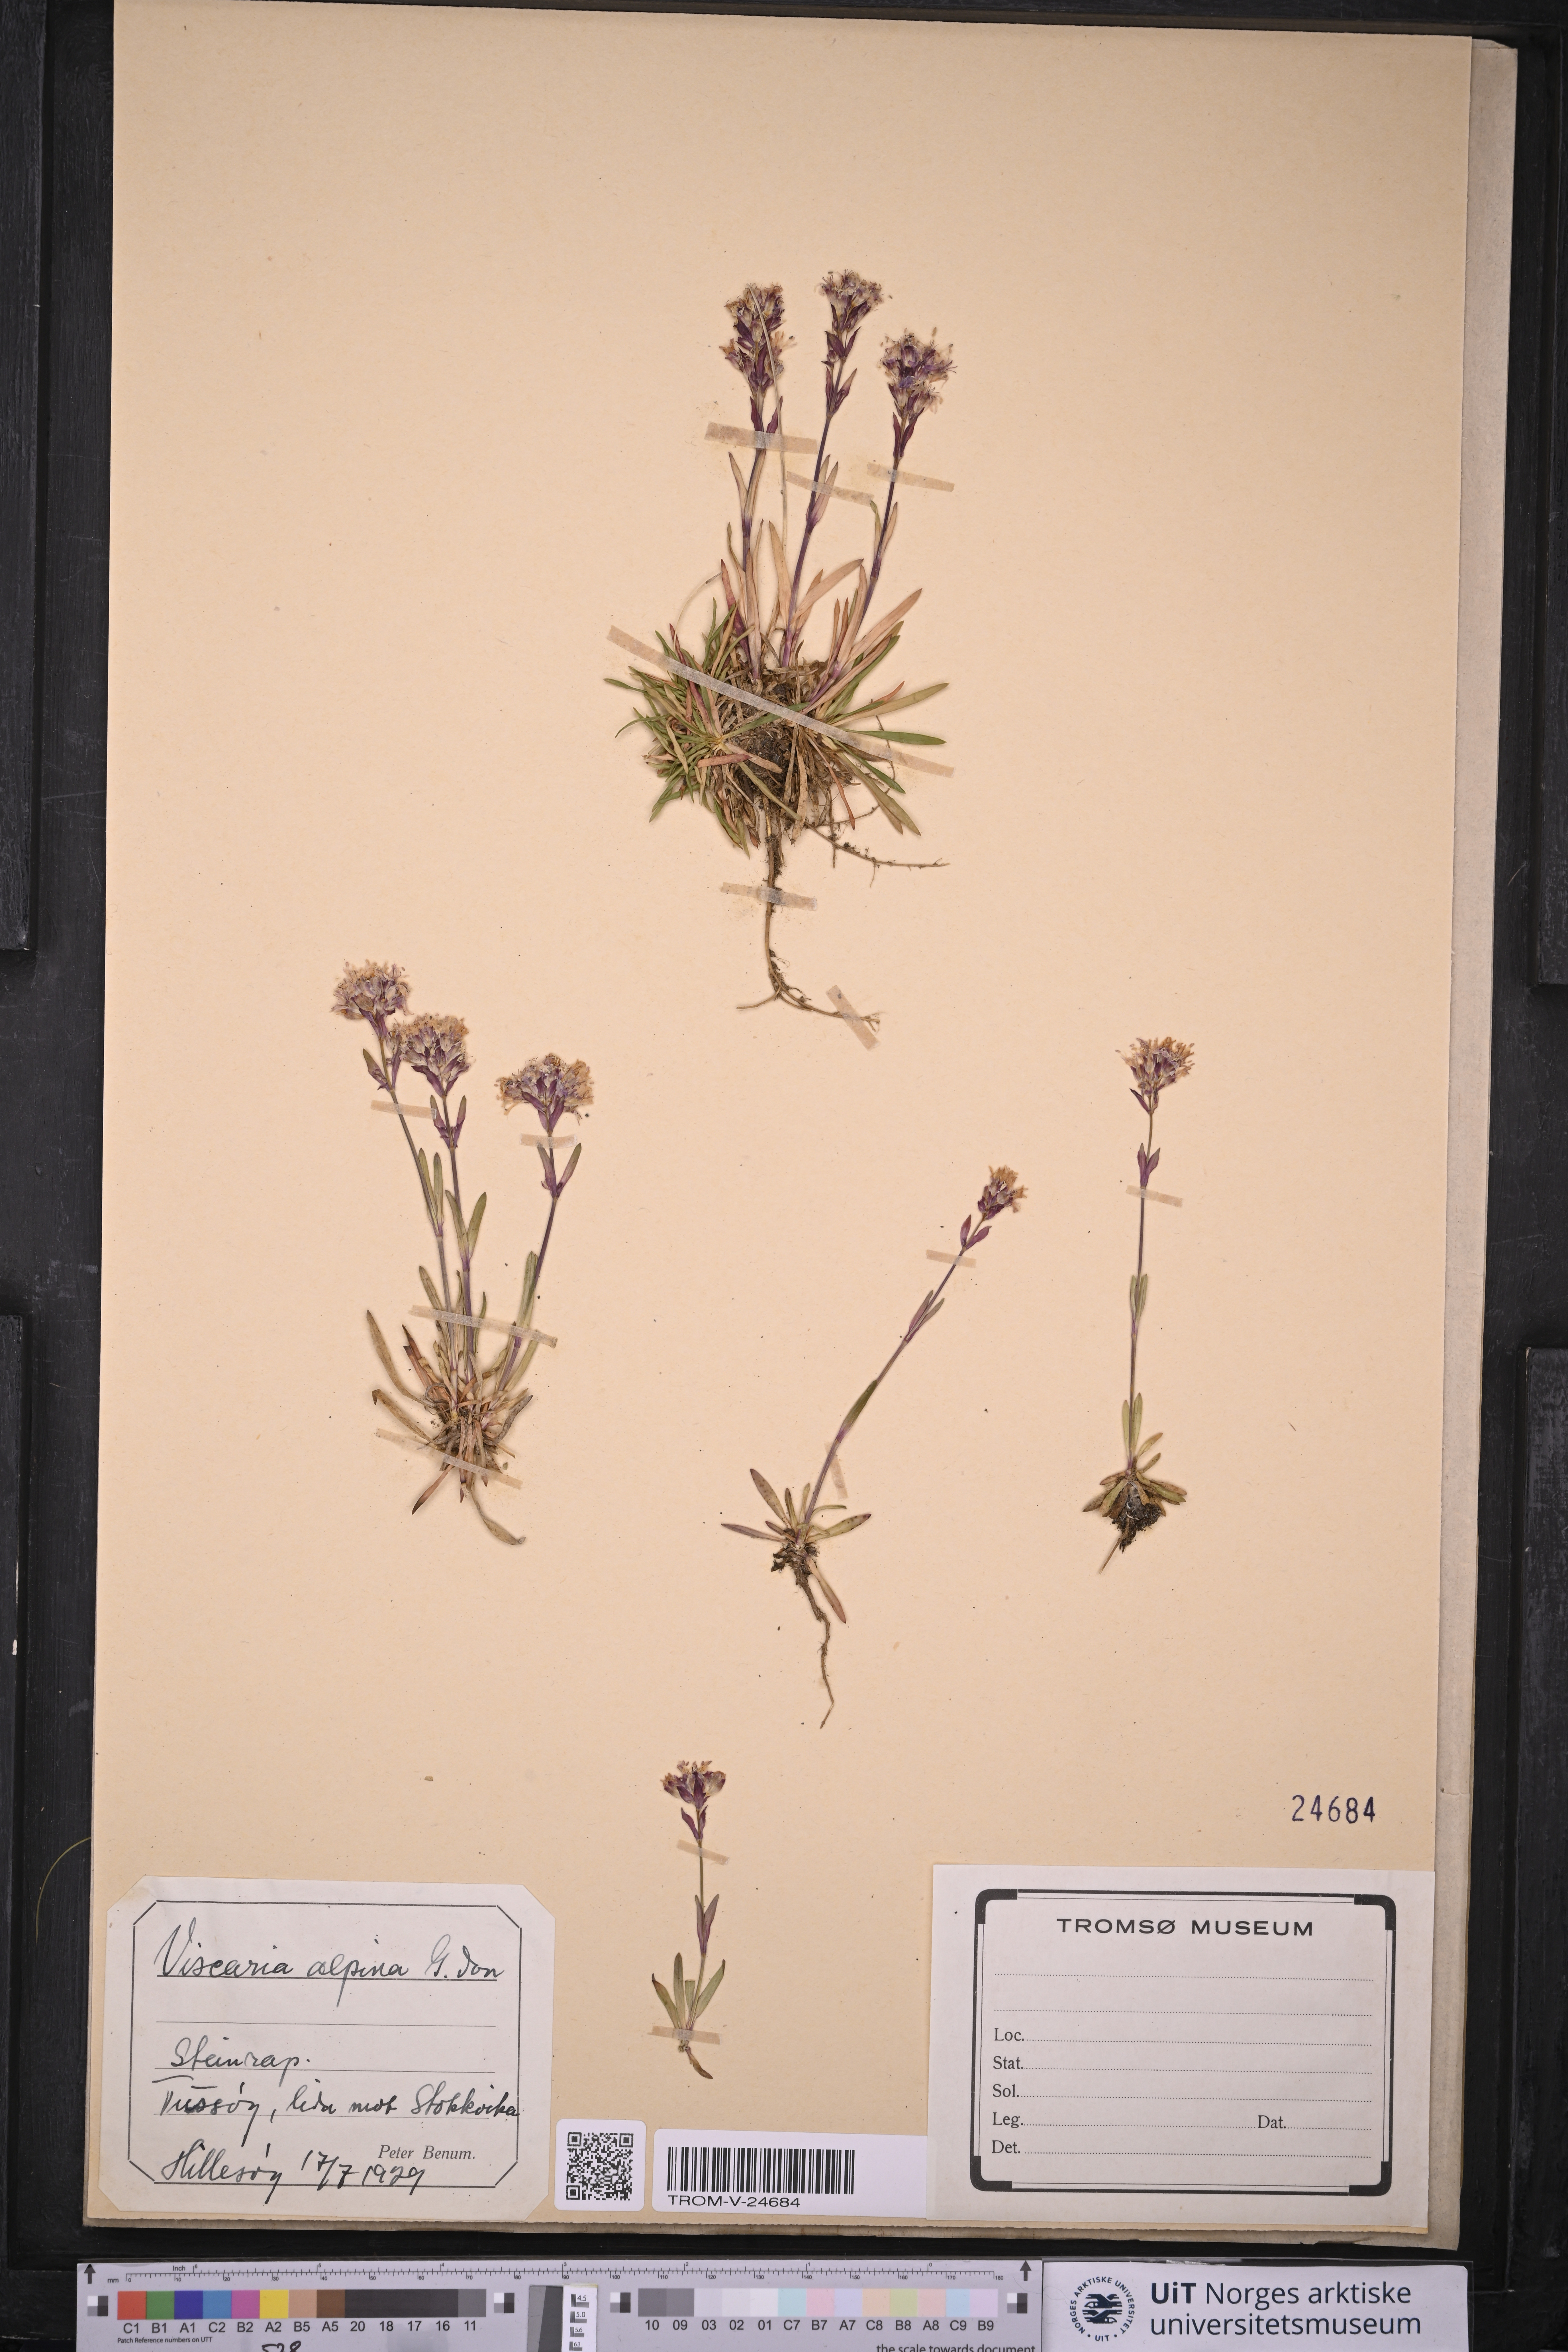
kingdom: Plantae
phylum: Tracheophyta
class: Magnoliopsida
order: Caryophyllales
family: Caryophyllaceae
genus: Viscaria
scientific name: Viscaria alpina
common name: Alpine campion
